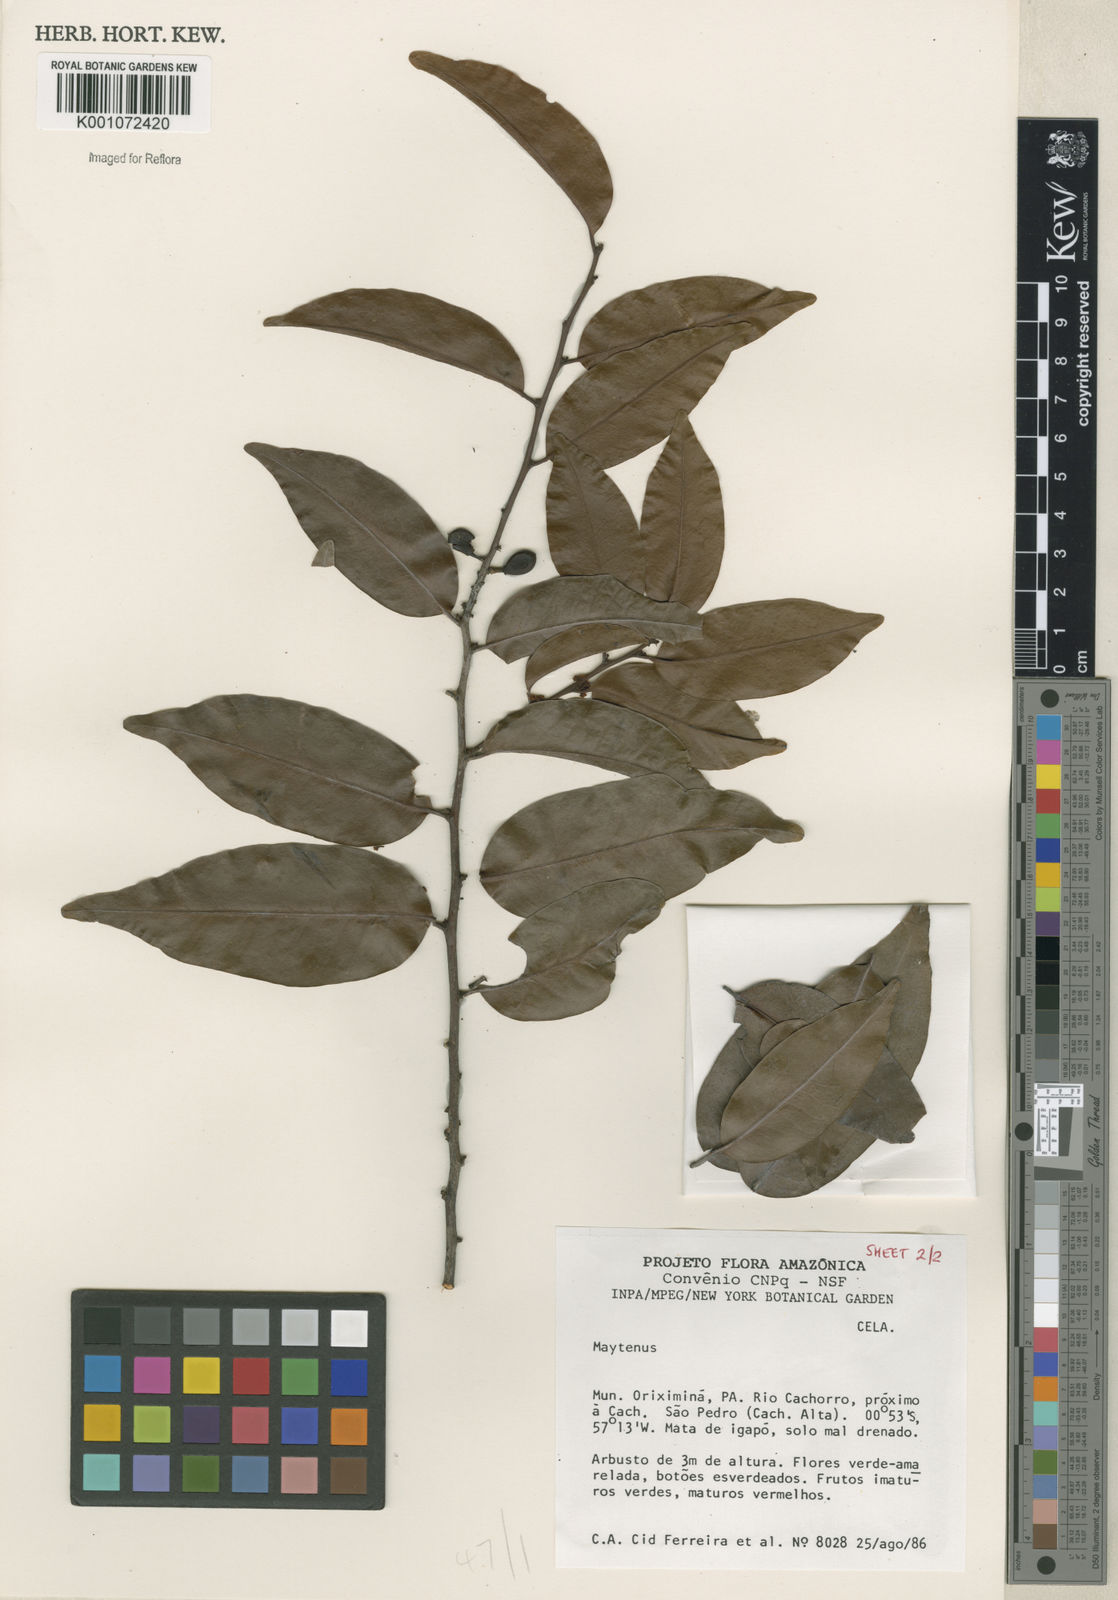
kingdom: Plantae
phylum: Tracheophyta
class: Magnoliopsida
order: Celastrales
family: Celastraceae
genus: Maytenus
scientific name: Maytenus
